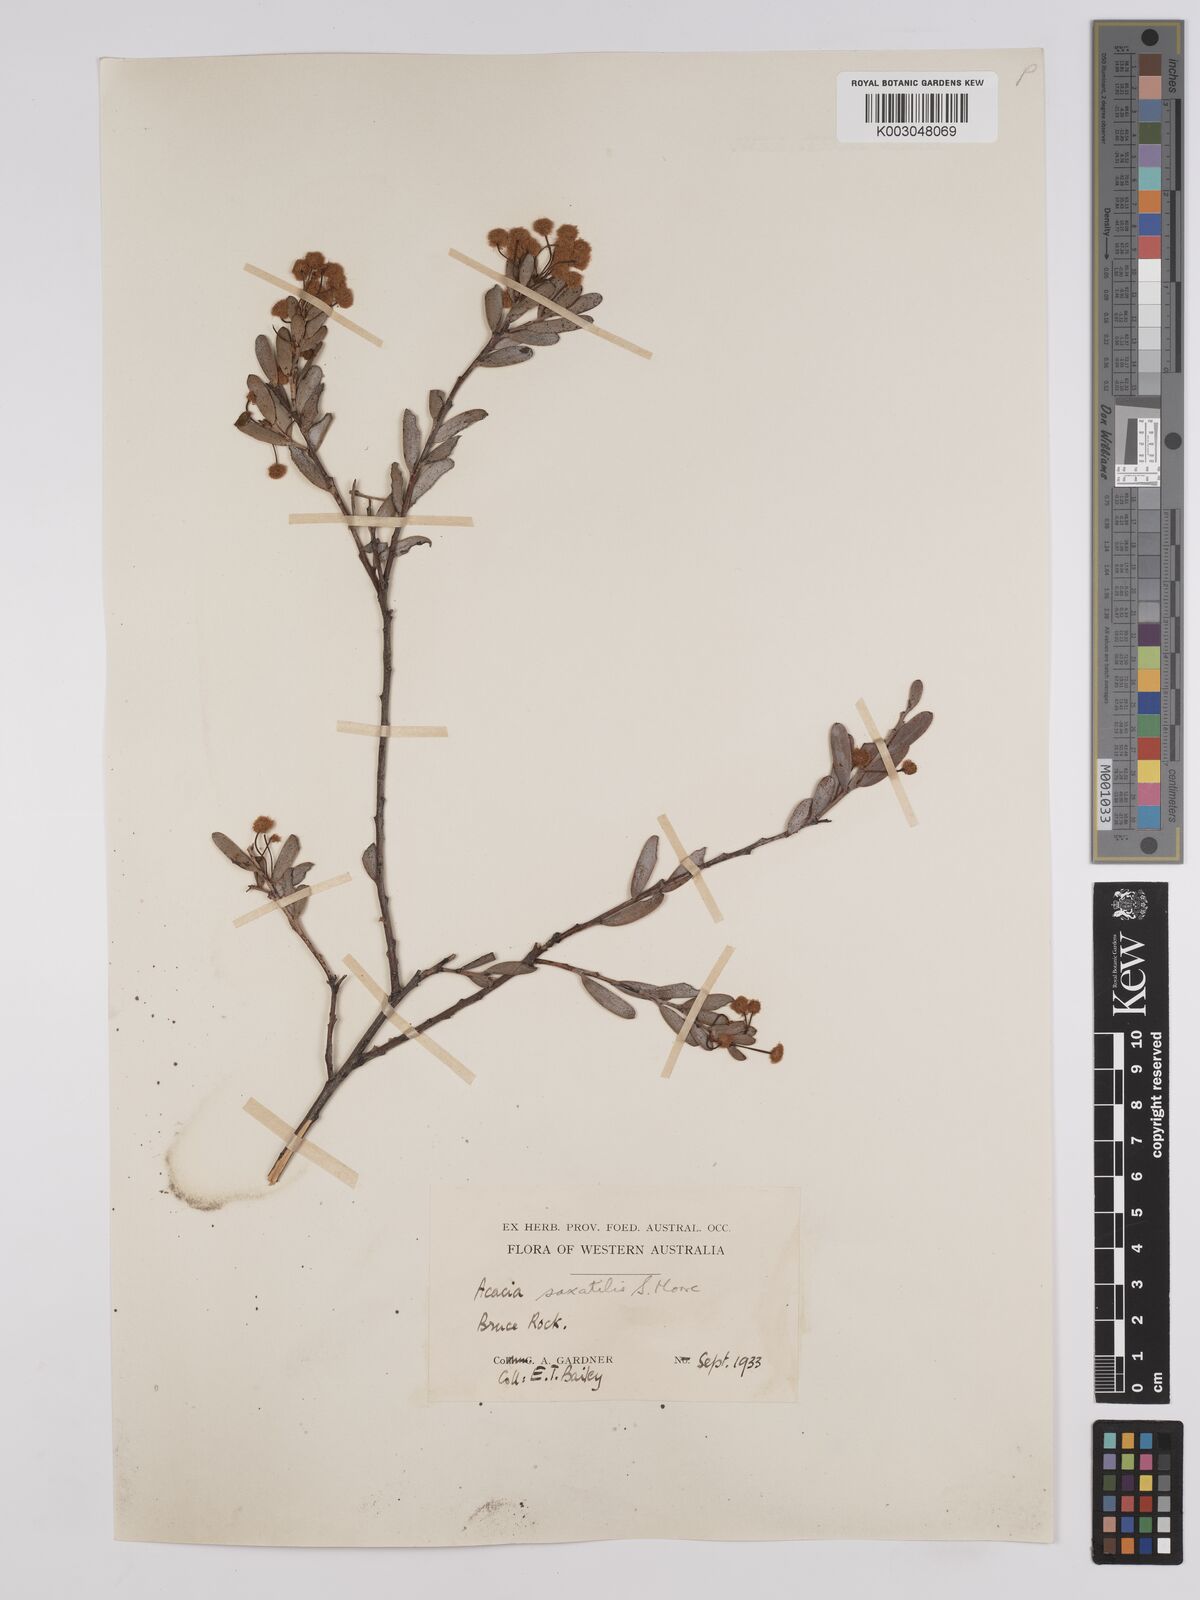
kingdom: Plantae
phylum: Tracheophyta
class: Magnoliopsida
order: Fabales
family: Fabaceae
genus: Acacia
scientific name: Acacia saxatilis
